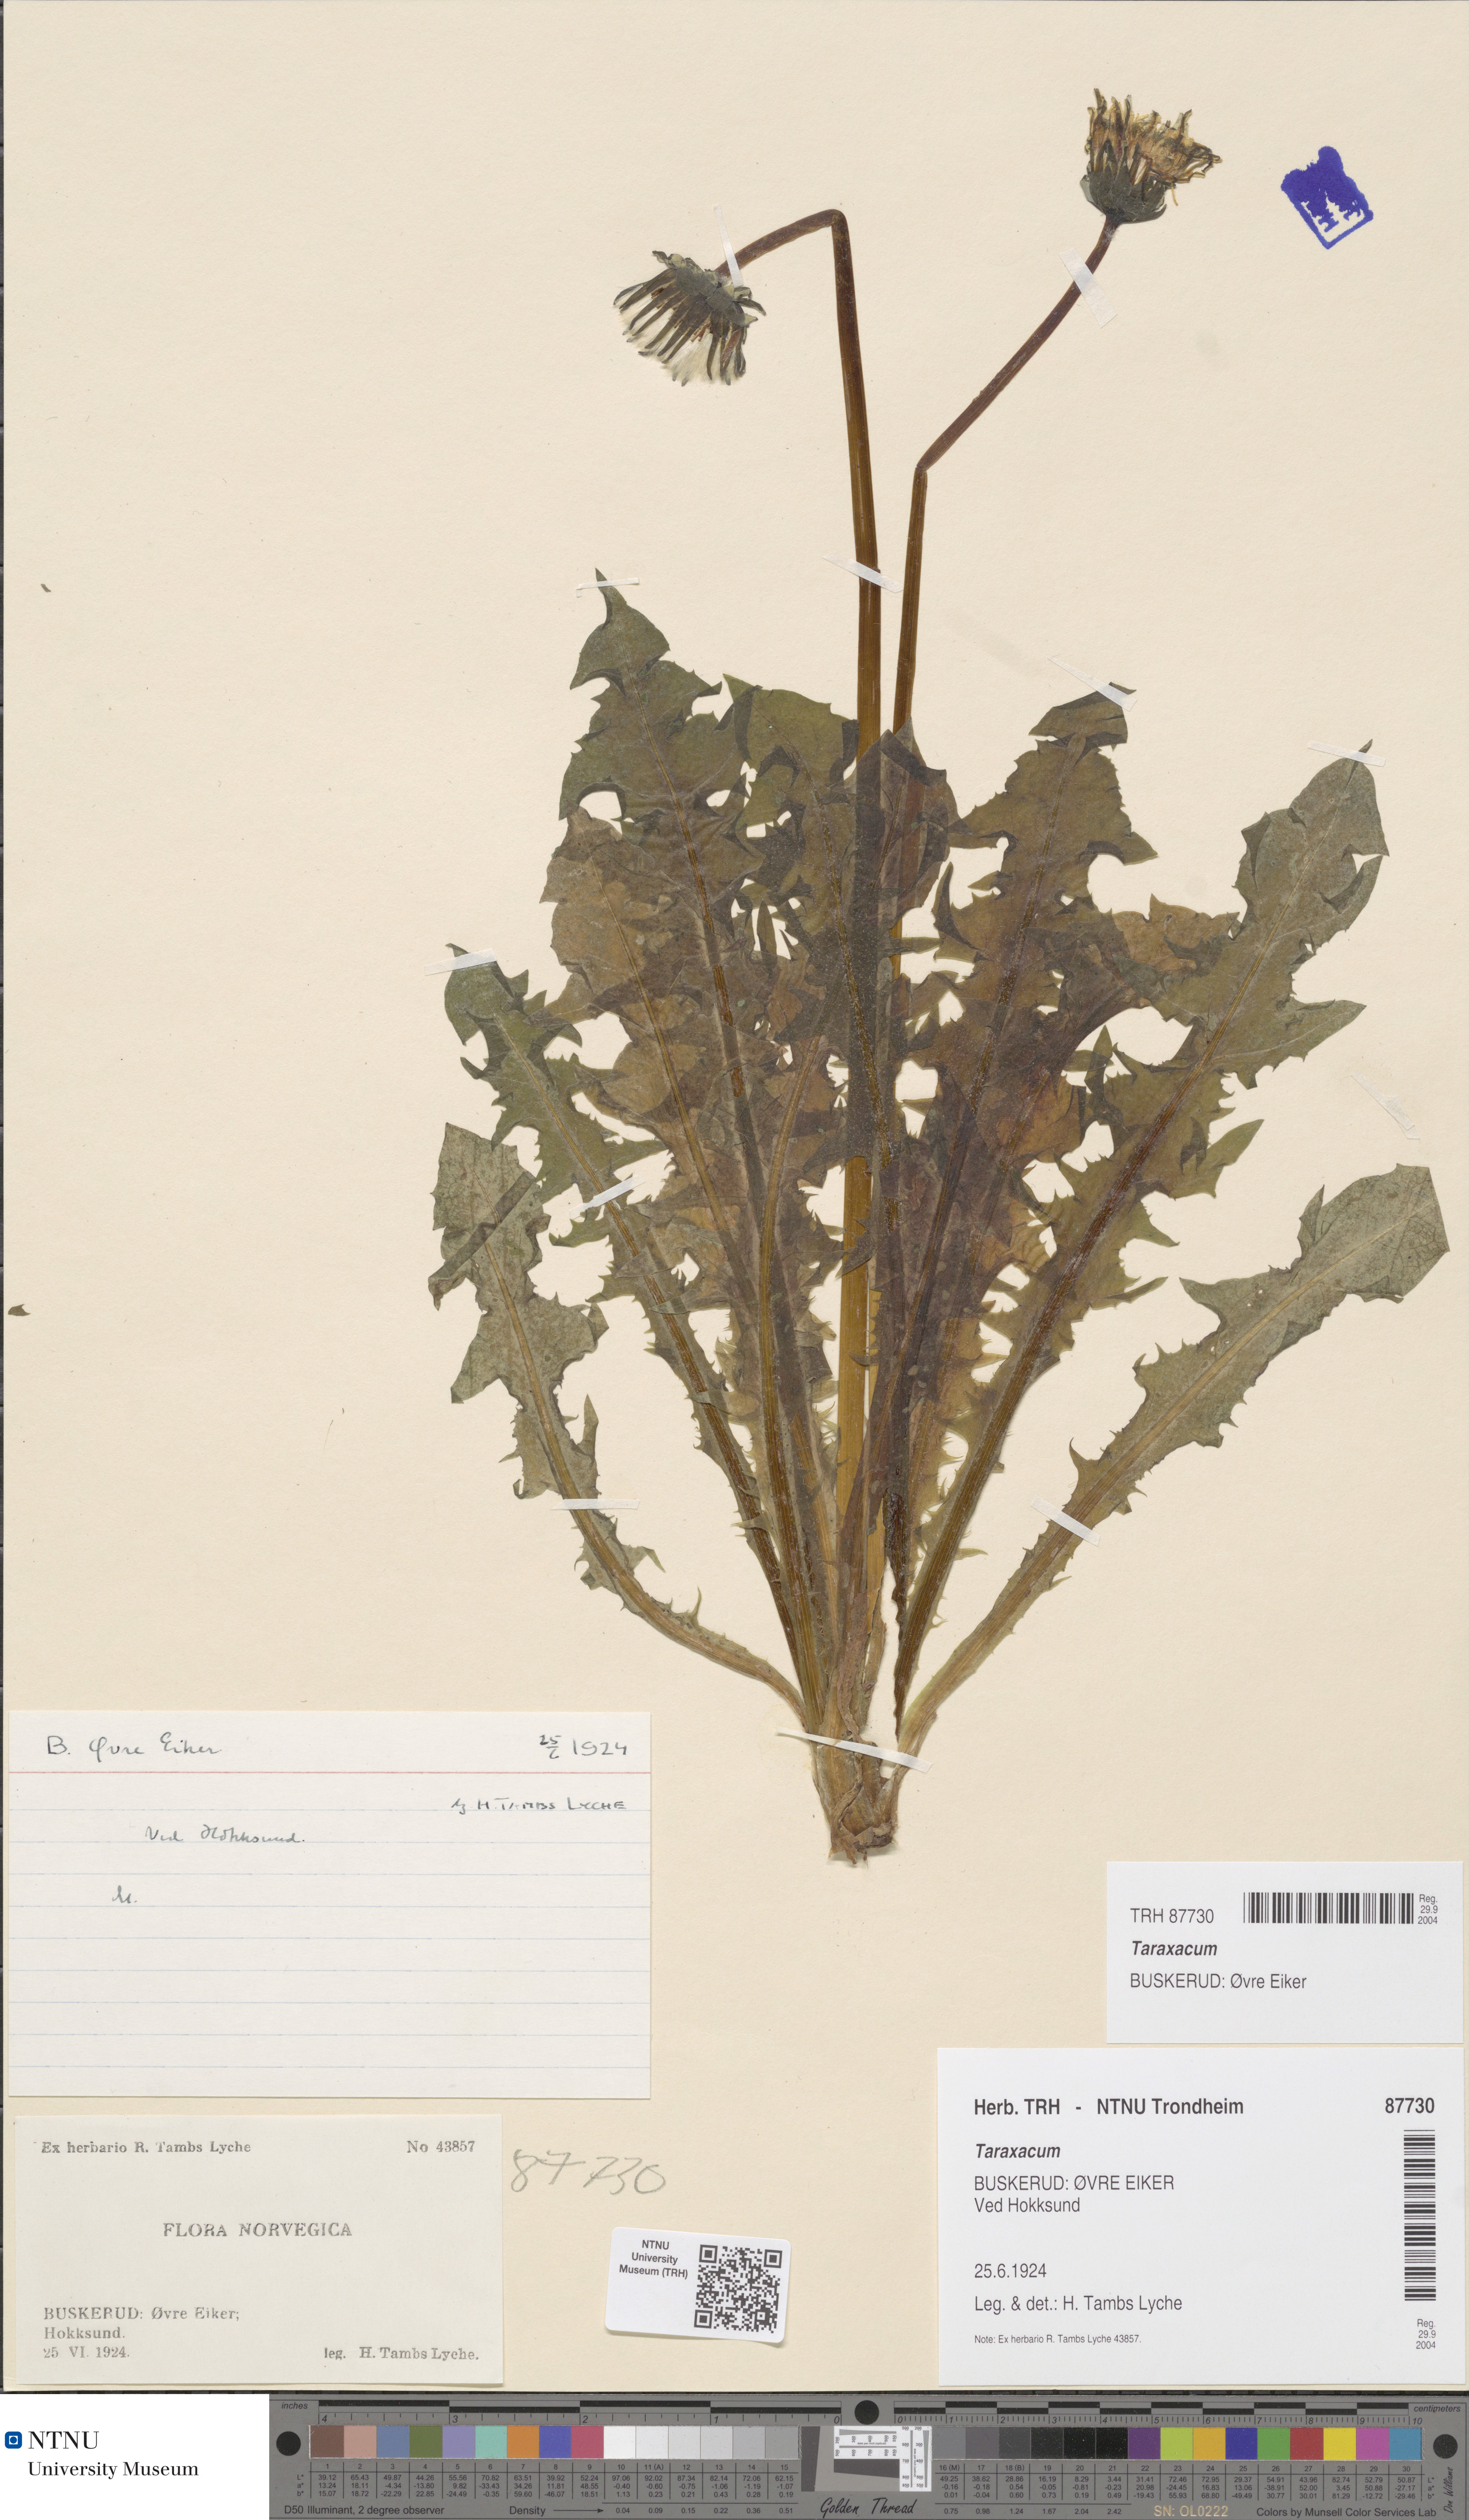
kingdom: Plantae
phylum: Tracheophyta
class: Magnoliopsida
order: Asterales
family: Asteraceae
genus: Taraxacum
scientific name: Taraxacum
